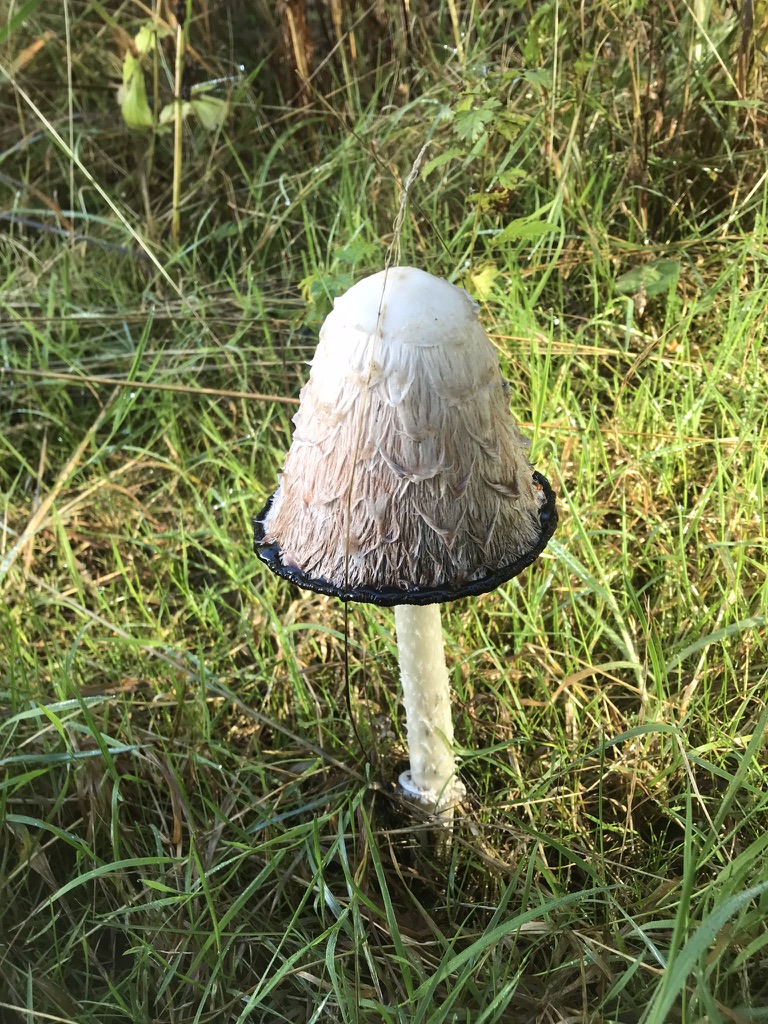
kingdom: Fungi
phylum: Basidiomycota
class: Agaricomycetes
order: Agaricales
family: Agaricaceae
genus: Coprinus
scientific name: Coprinus comatus
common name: stor parykhat
